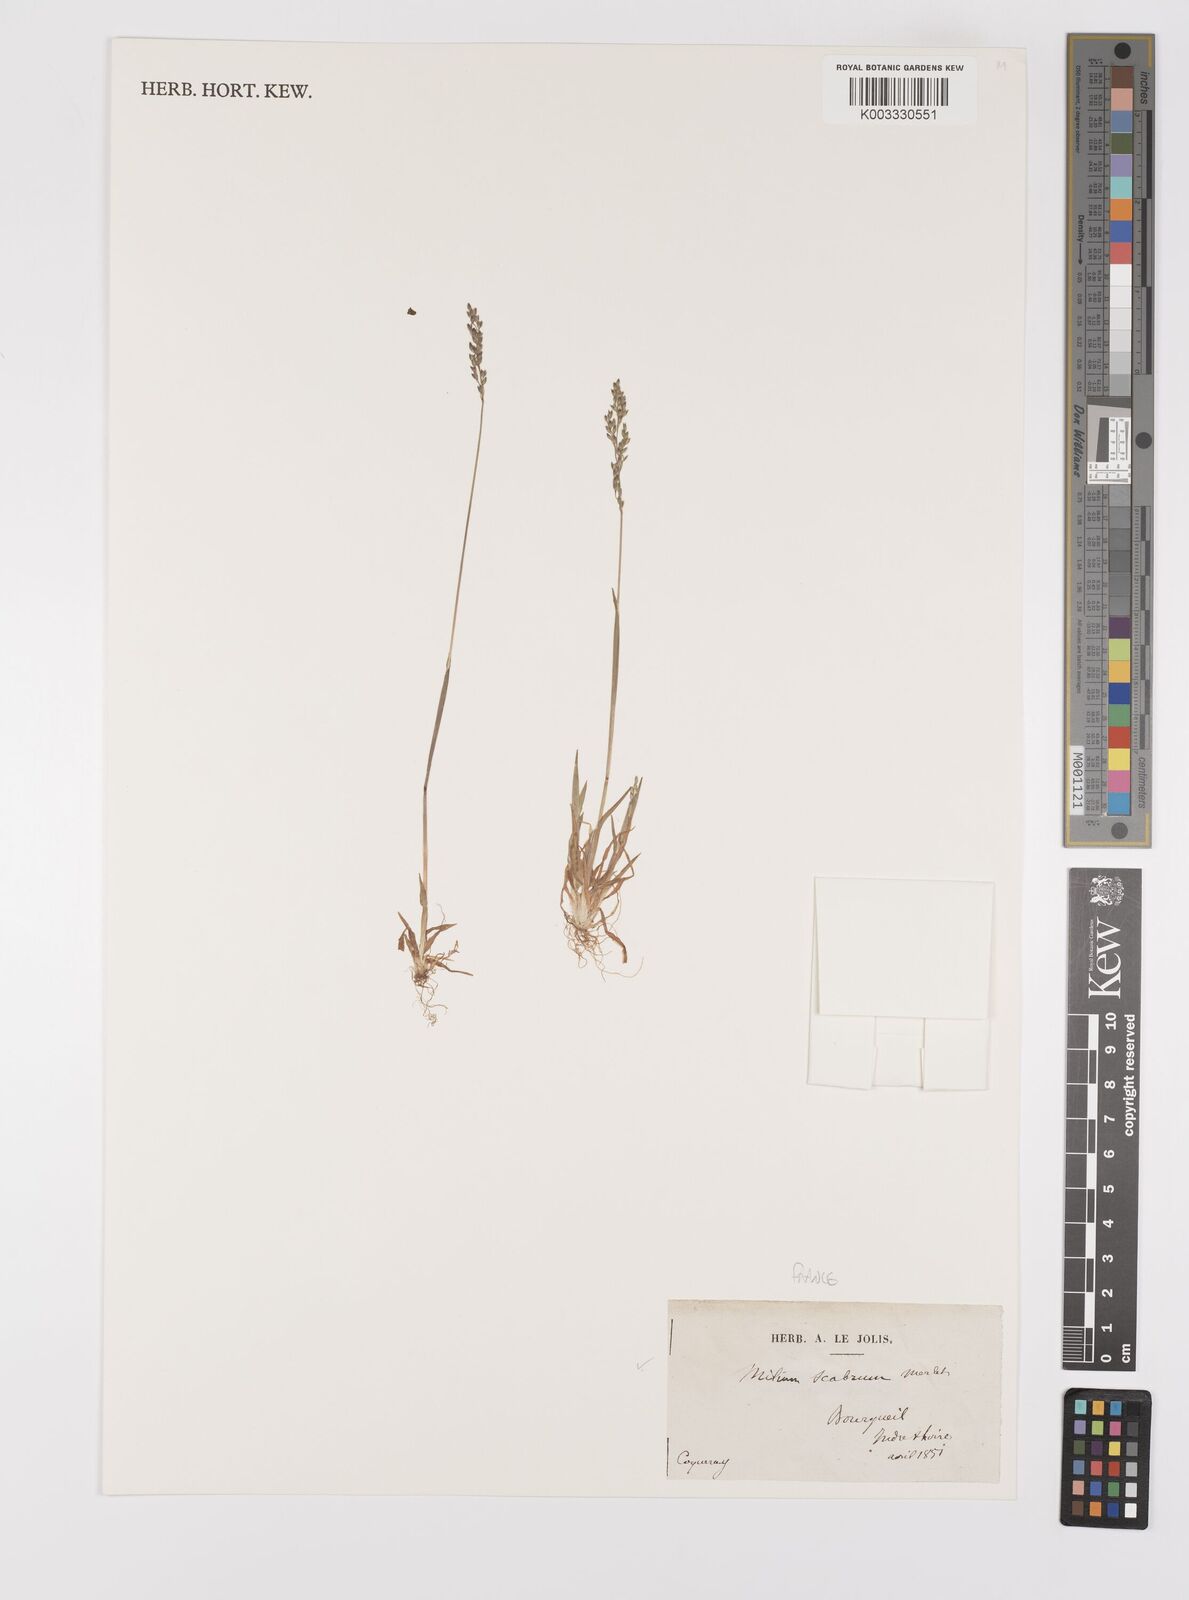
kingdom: Plantae
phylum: Tracheophyta
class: Liliopsida
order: Poales
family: Poaceae
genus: Milium
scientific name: Milium vernale
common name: Early millet
